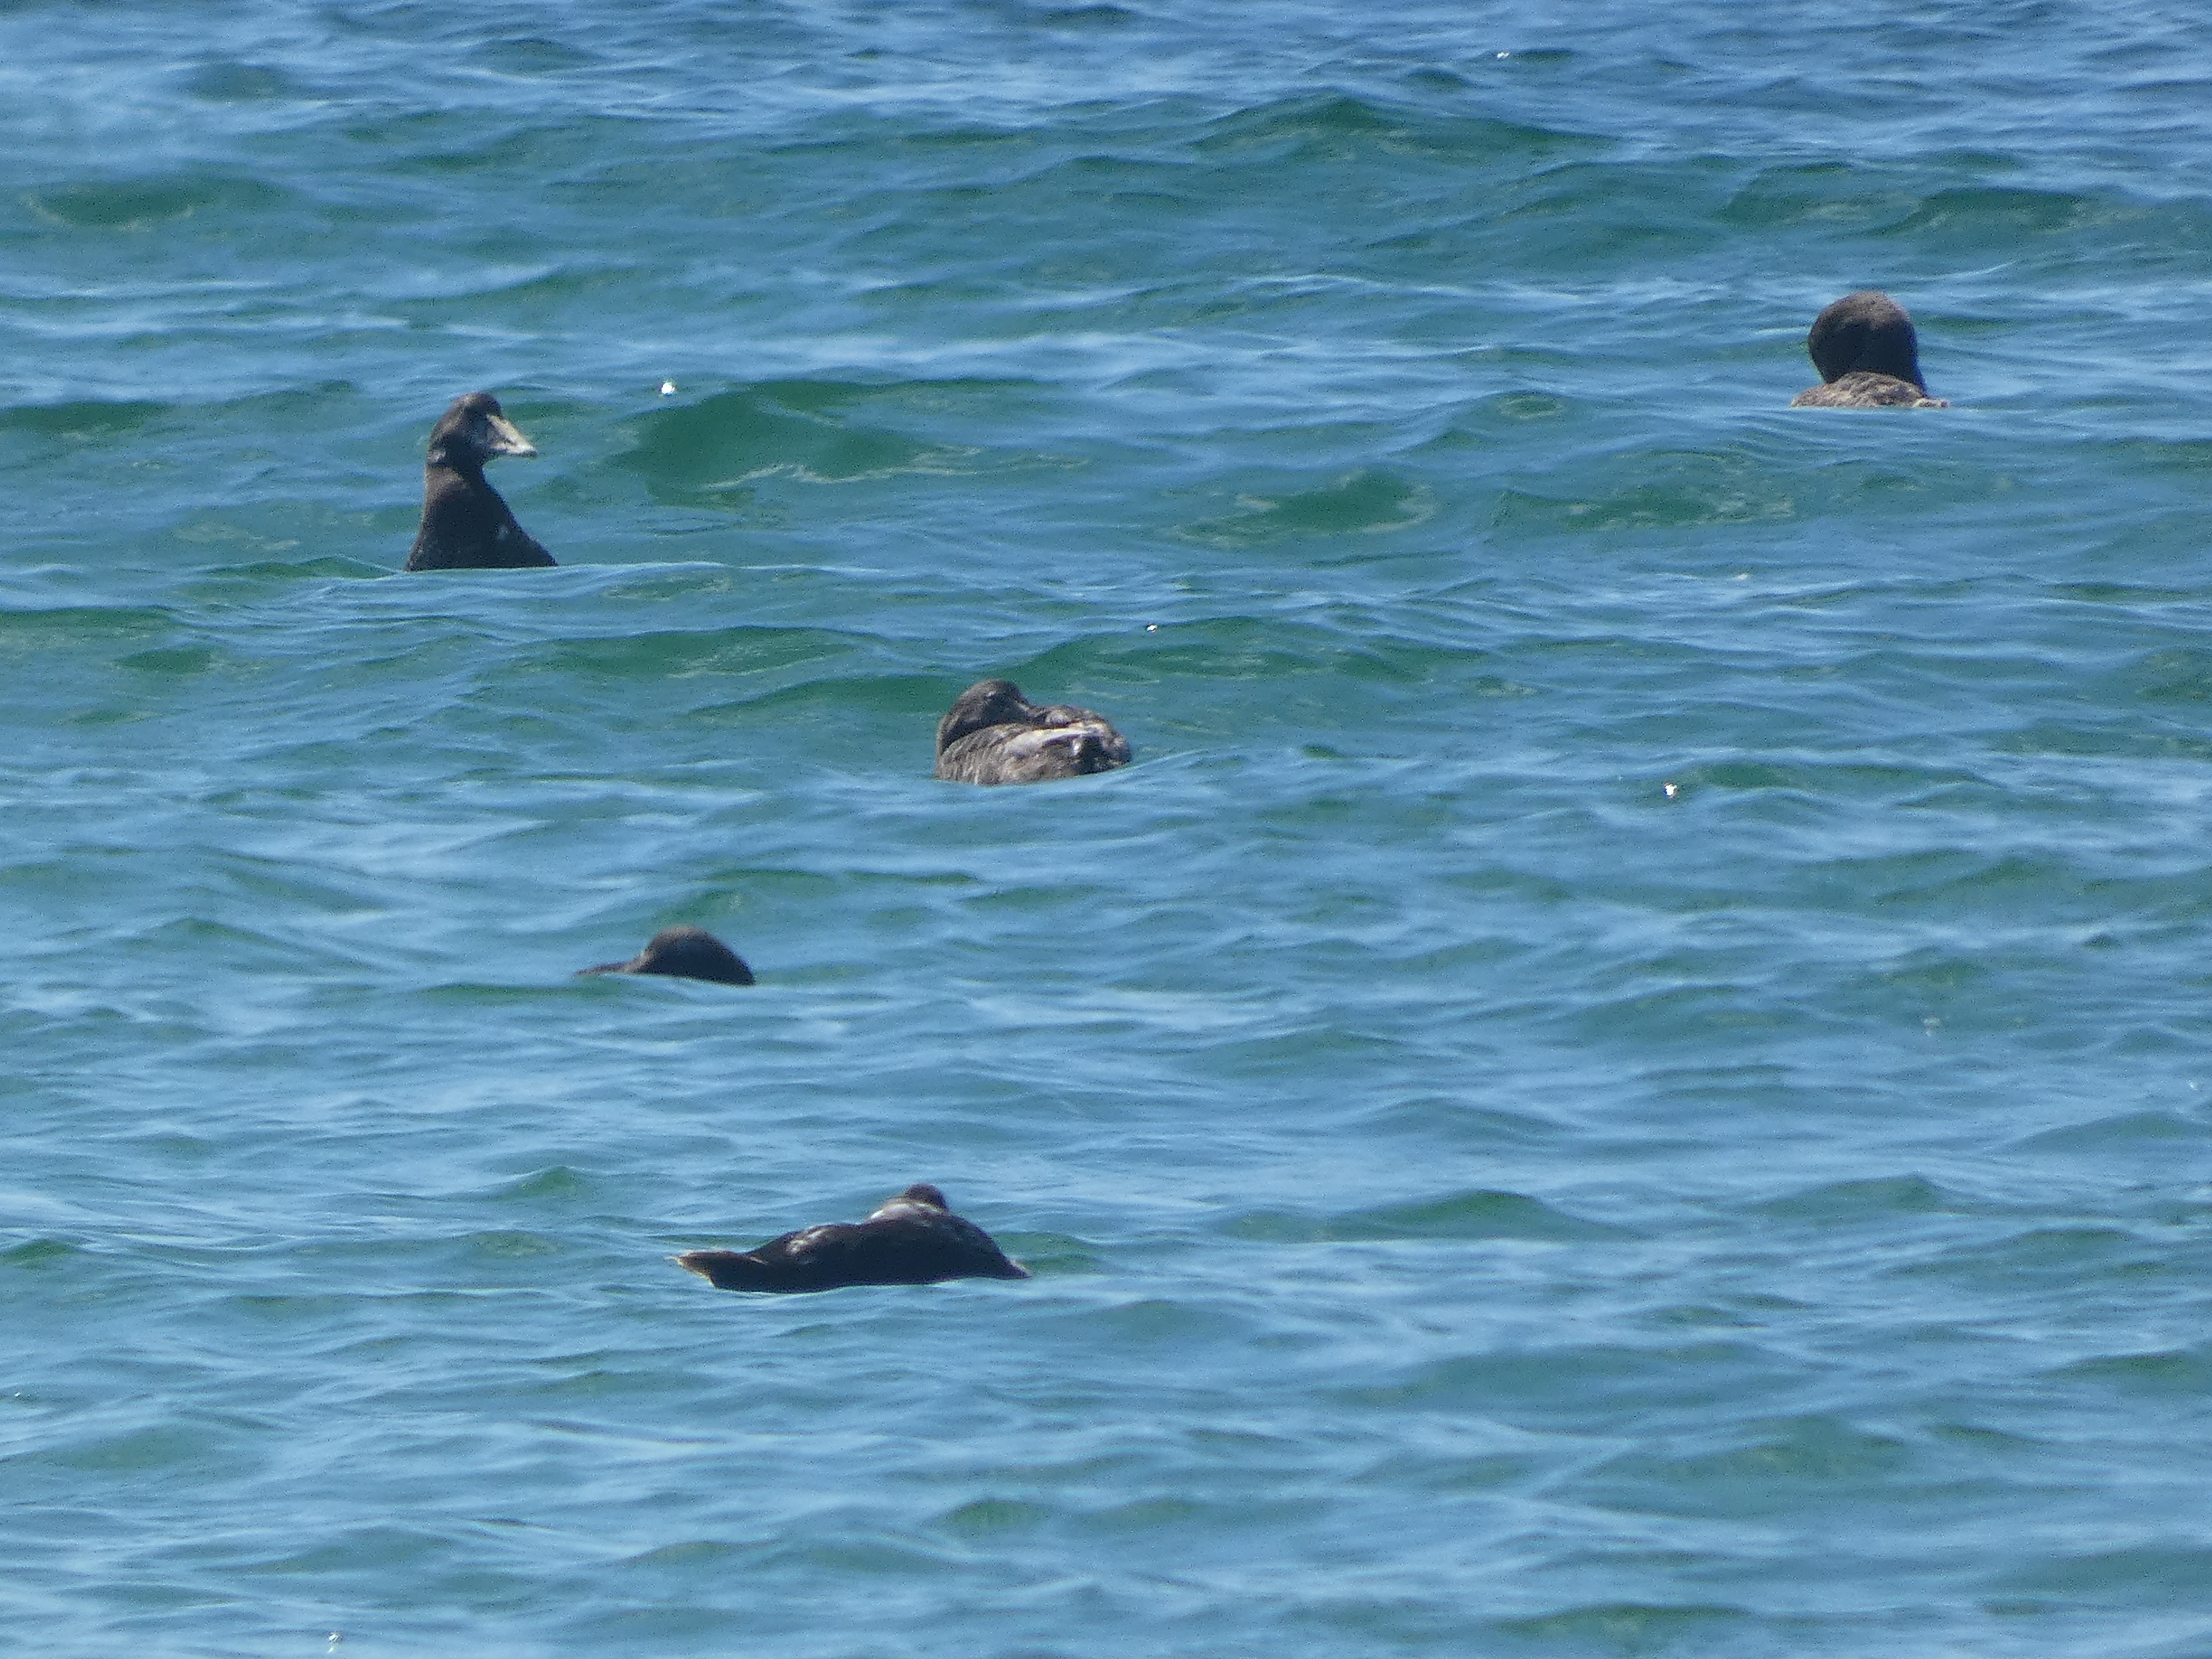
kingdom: Animalia
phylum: Chordata
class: Aves
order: Anseriformes
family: Anatidae
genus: Somateria
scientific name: Somateria mollissima
